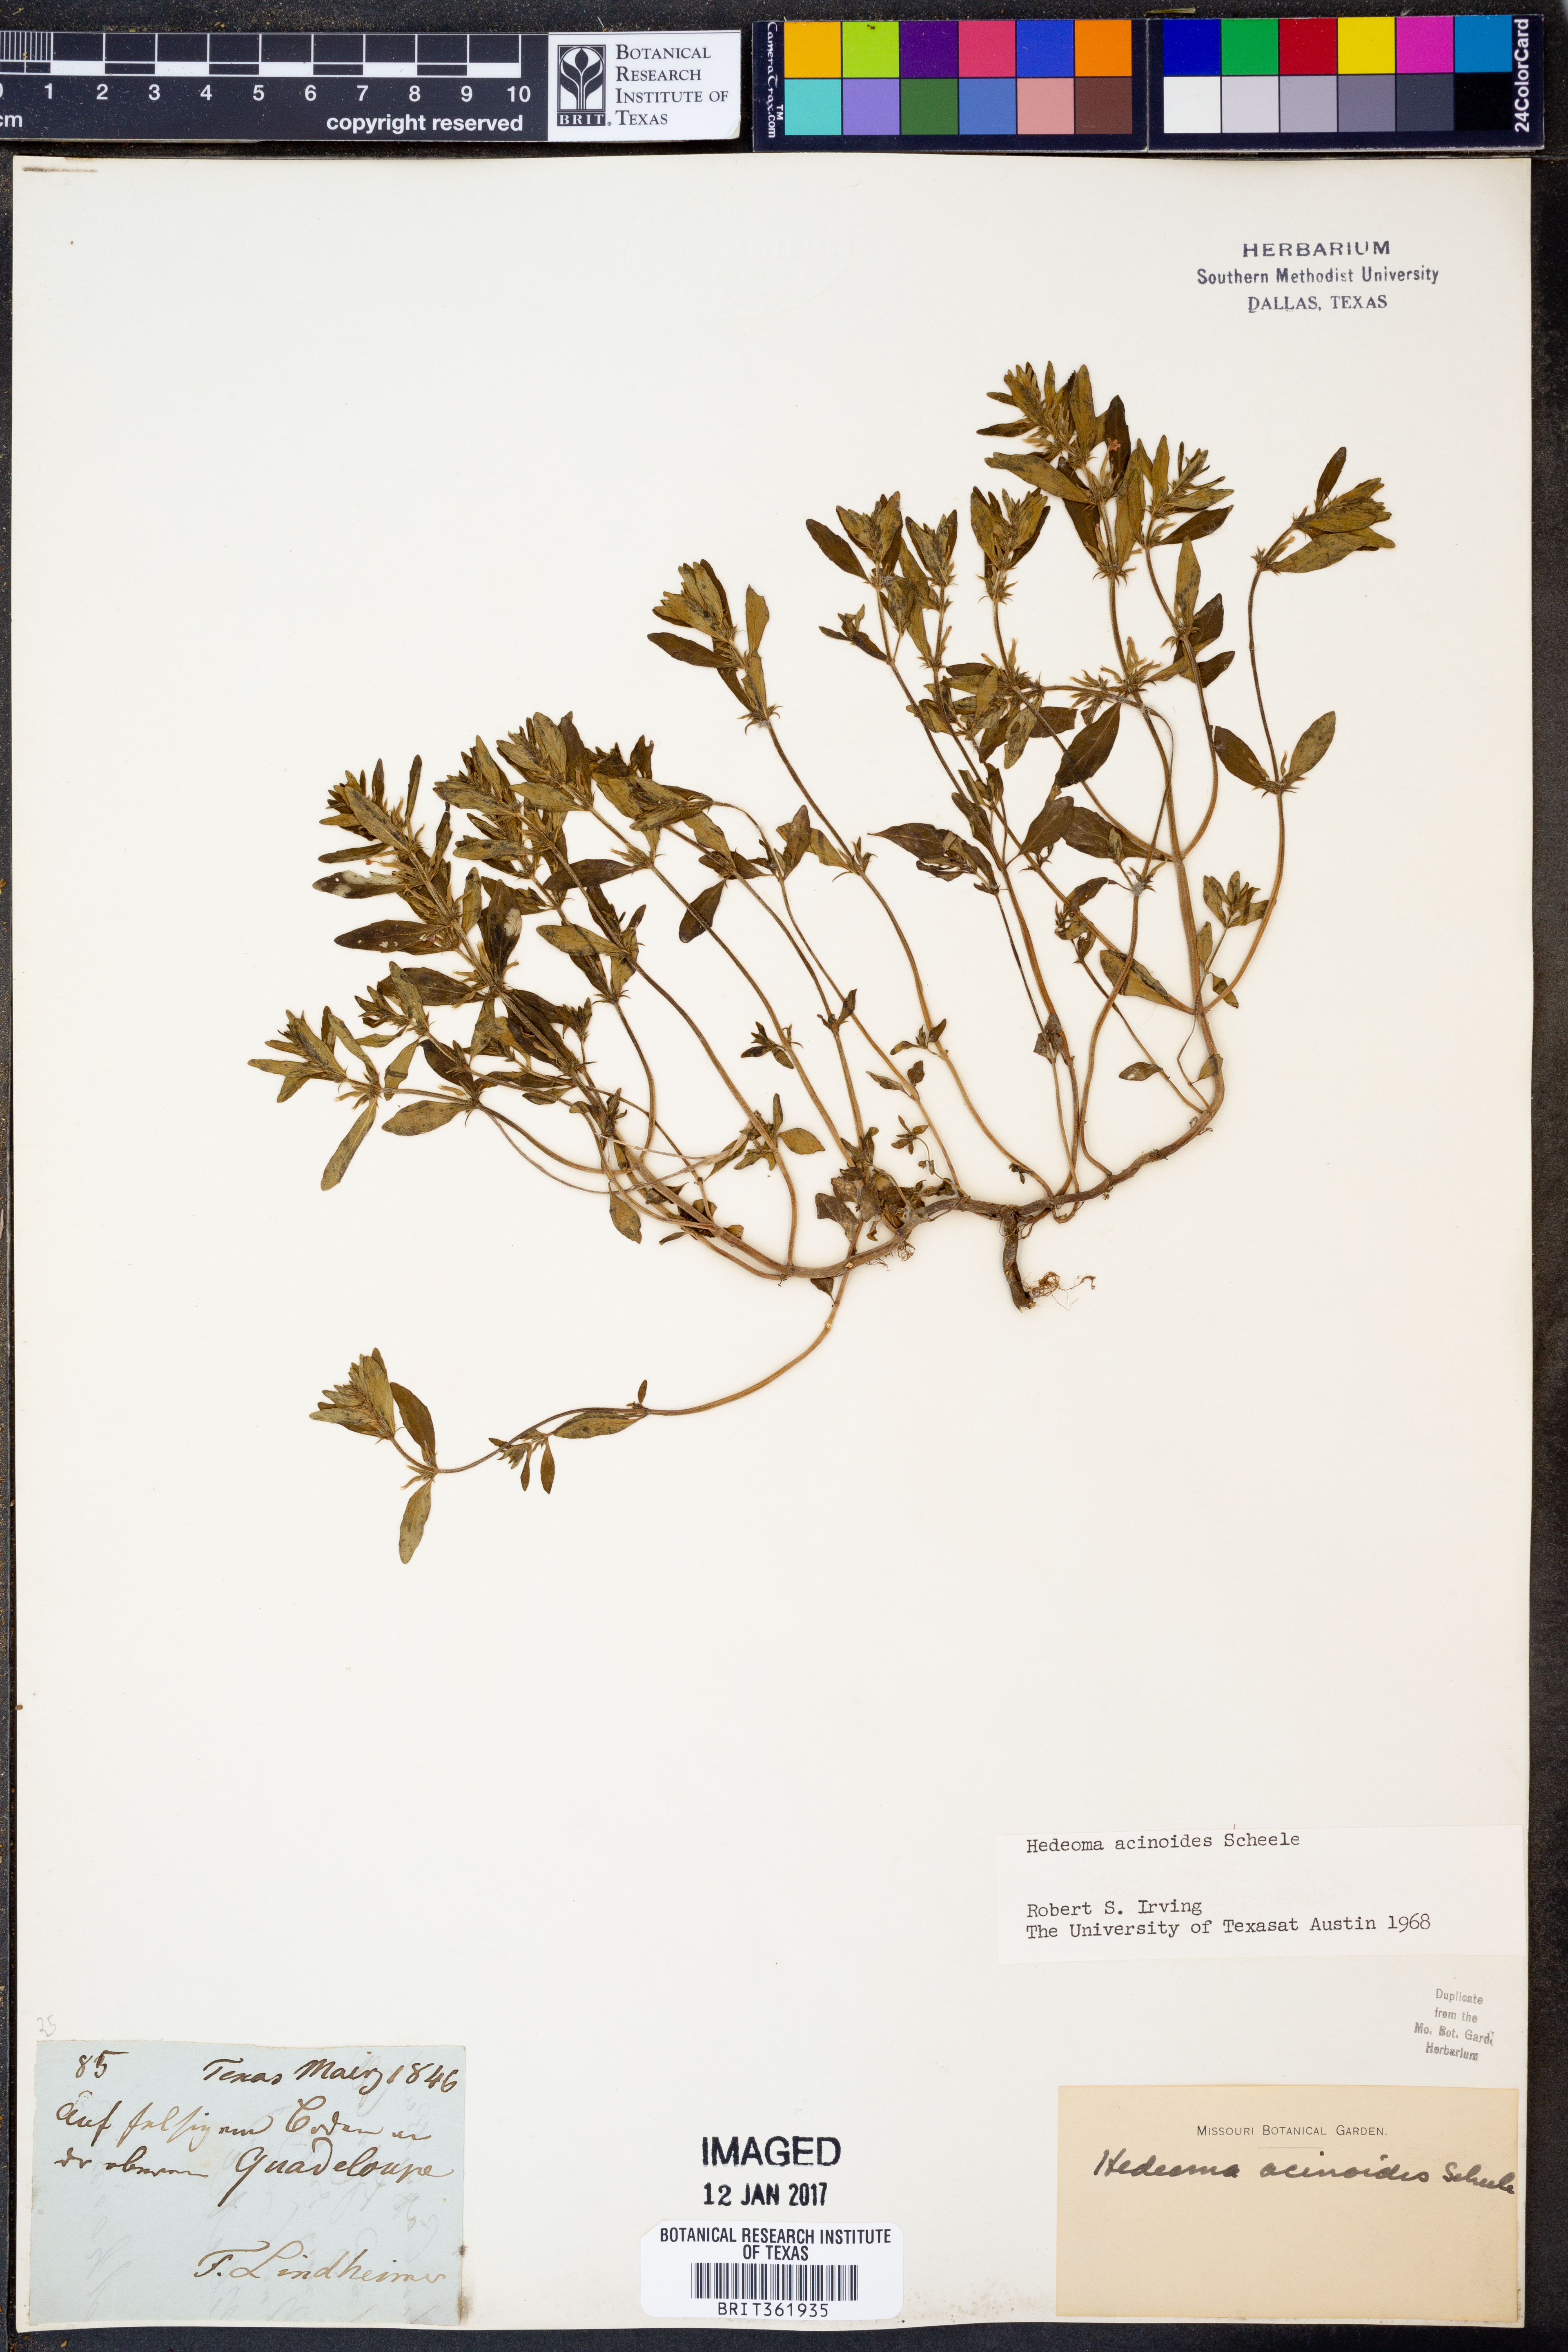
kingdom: Plantae
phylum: Tracheophyta
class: Magnoliopsida
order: Lamiales
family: Lamiaceae
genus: Hedeoma
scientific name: Hedeoma acinoides
